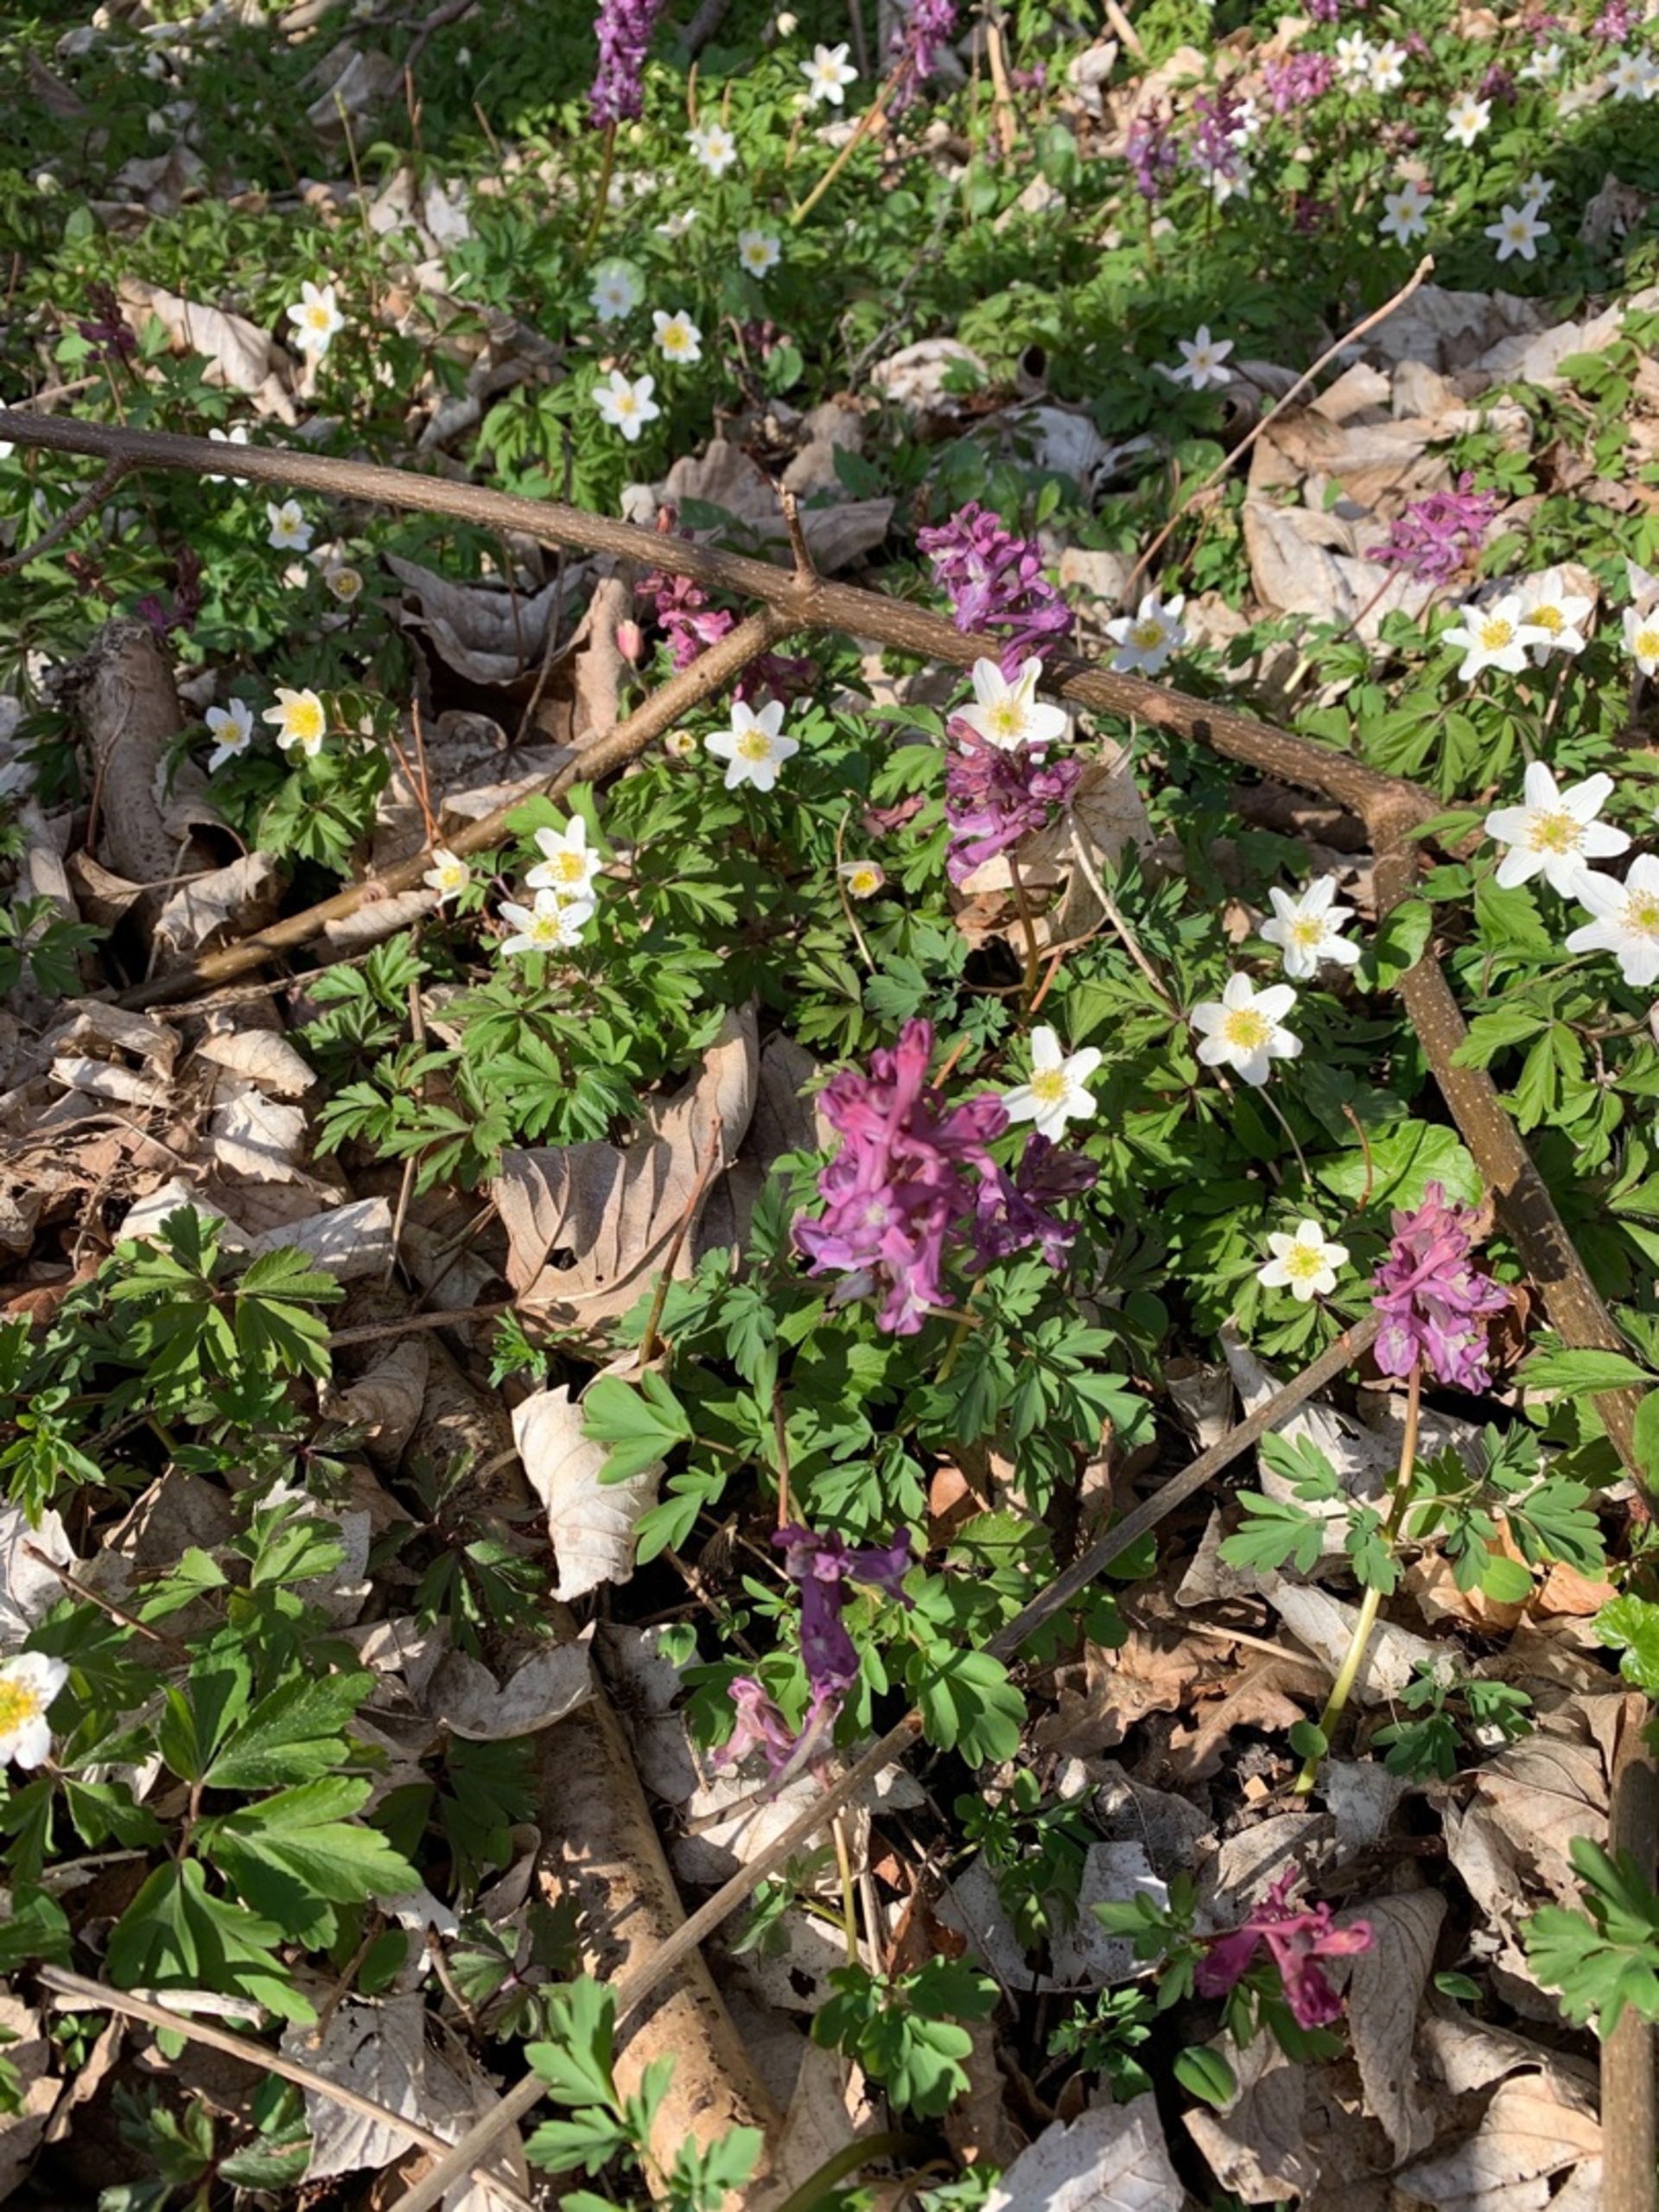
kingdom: Plantae
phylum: Tracheophyta
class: Magnoliopsida
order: Ranunculales
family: Papaveraceae
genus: Corydalis
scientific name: Corydalis cava
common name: Hulrodet lærkespore
